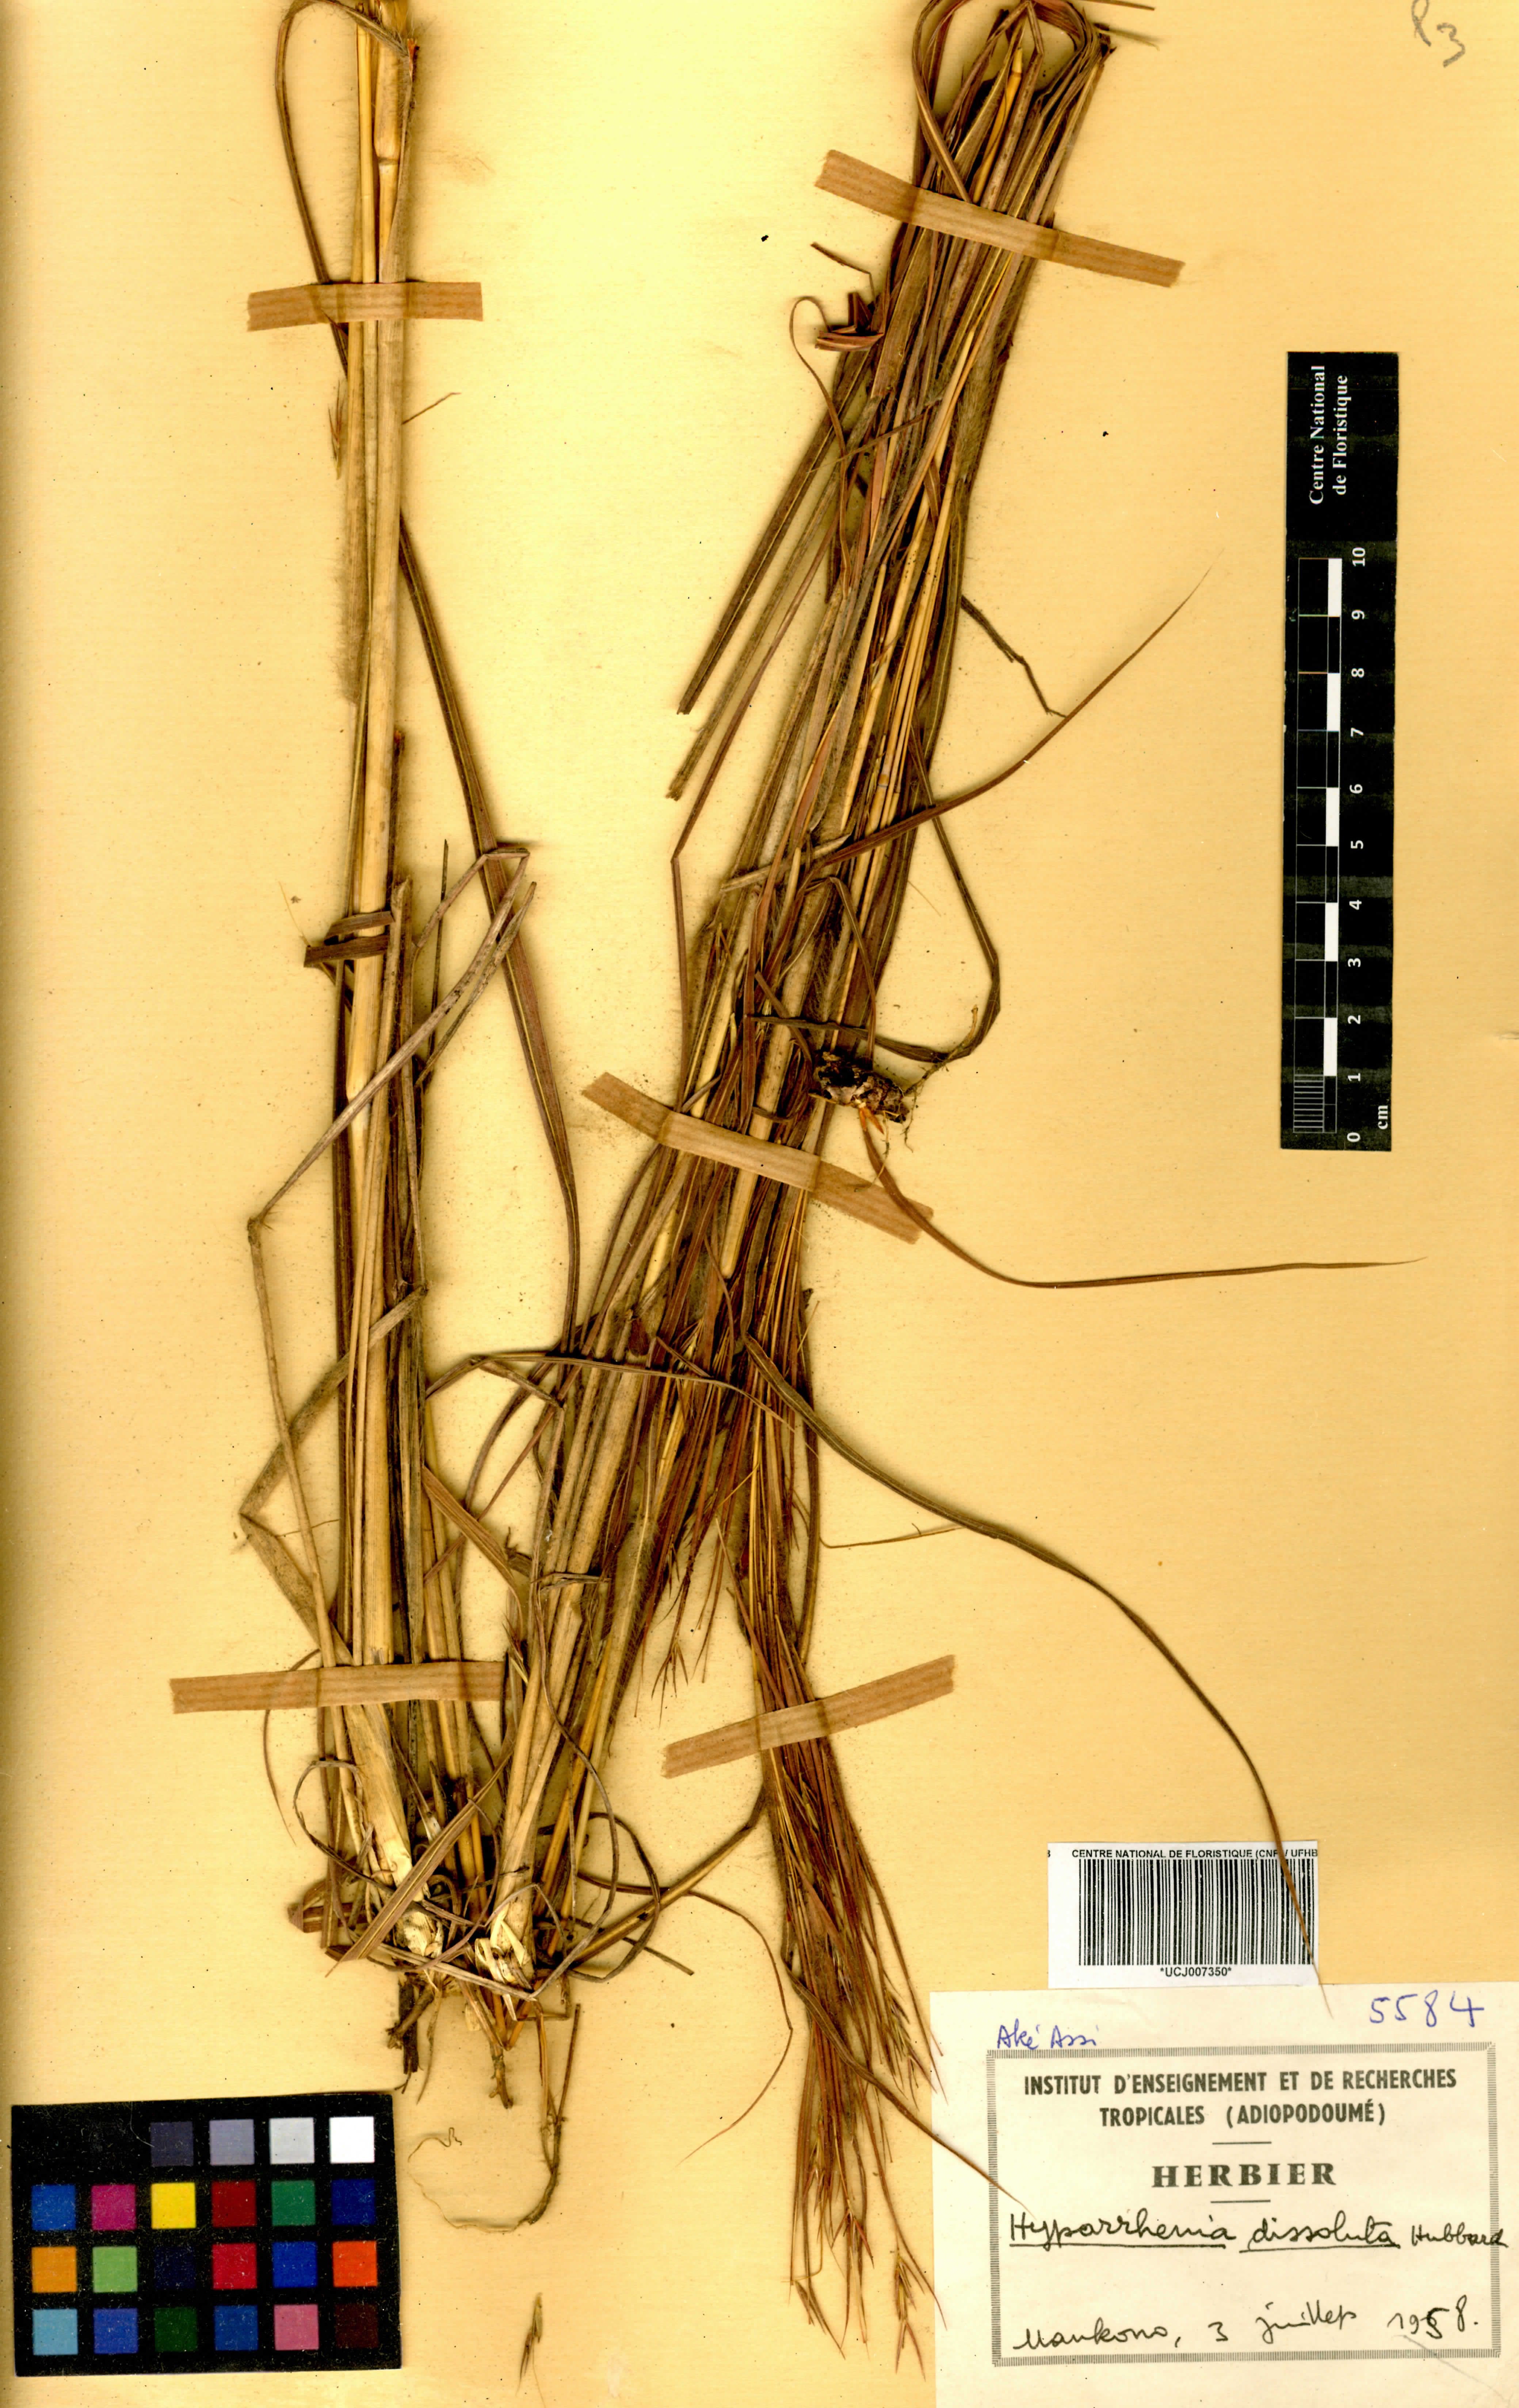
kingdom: Plantae
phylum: Tracheophyta
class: Liliopsida
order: Poales
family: Poaceae
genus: Hyperthelia
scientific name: Hyperthelia dissoluta
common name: Yellow thatching grass
